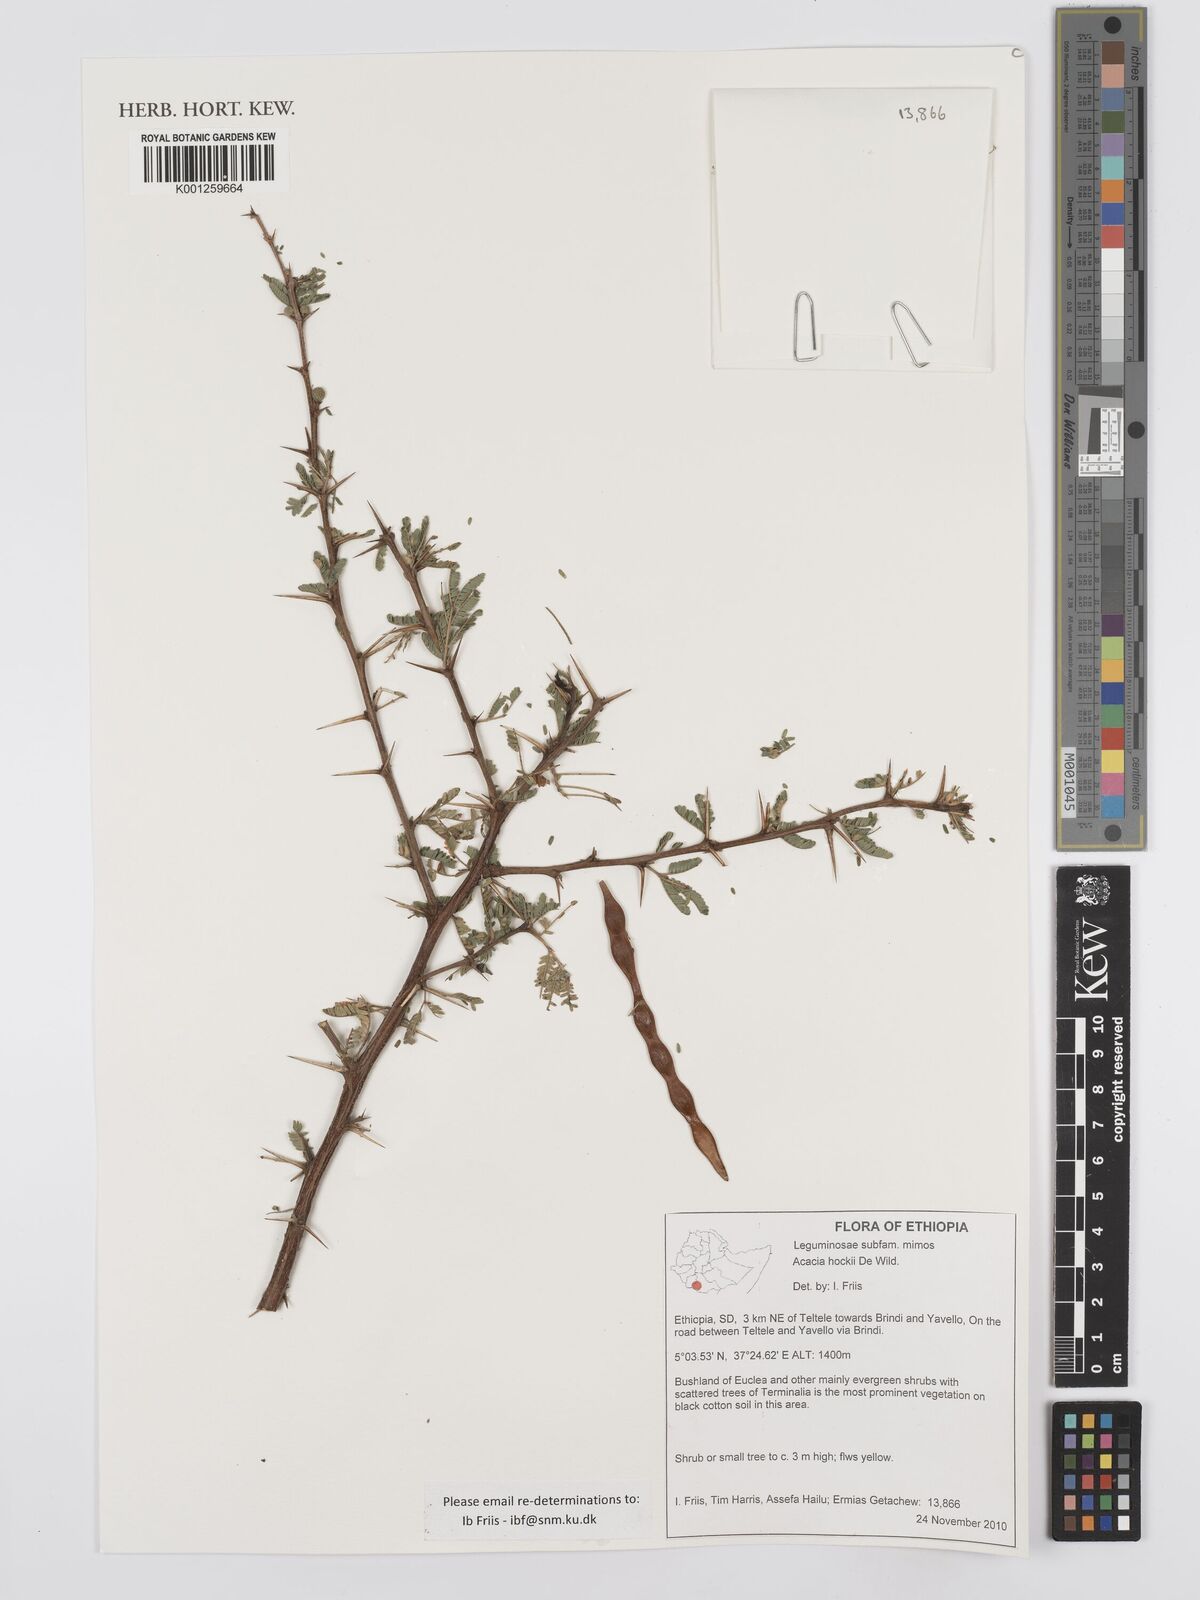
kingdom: Plantae
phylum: Tracheophyta
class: Magnoliopsida
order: Fabales
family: Fabaceae
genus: Vachellia
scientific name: Vachellia hockii
